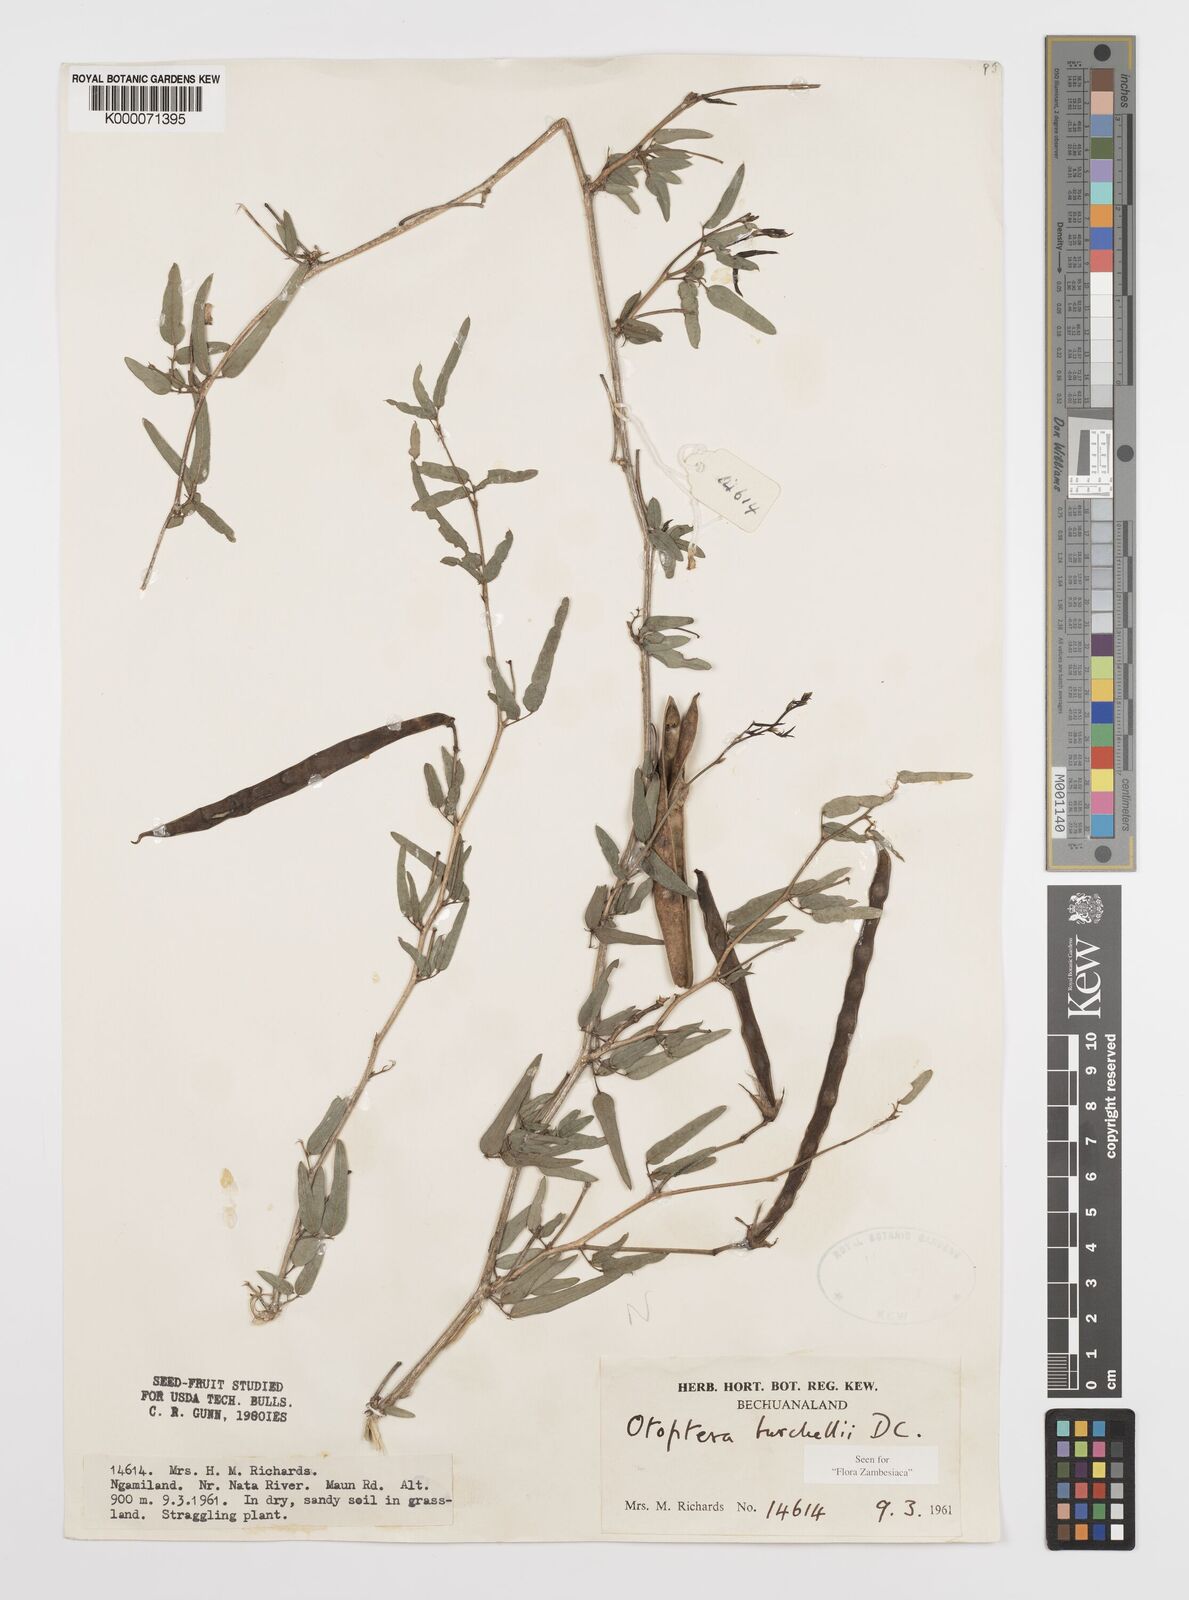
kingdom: Plantae
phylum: Tracheophyta
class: Magnoliopsida
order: Fabales
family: Fabaceae
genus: Otoptera
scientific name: Otoptera burchellii
